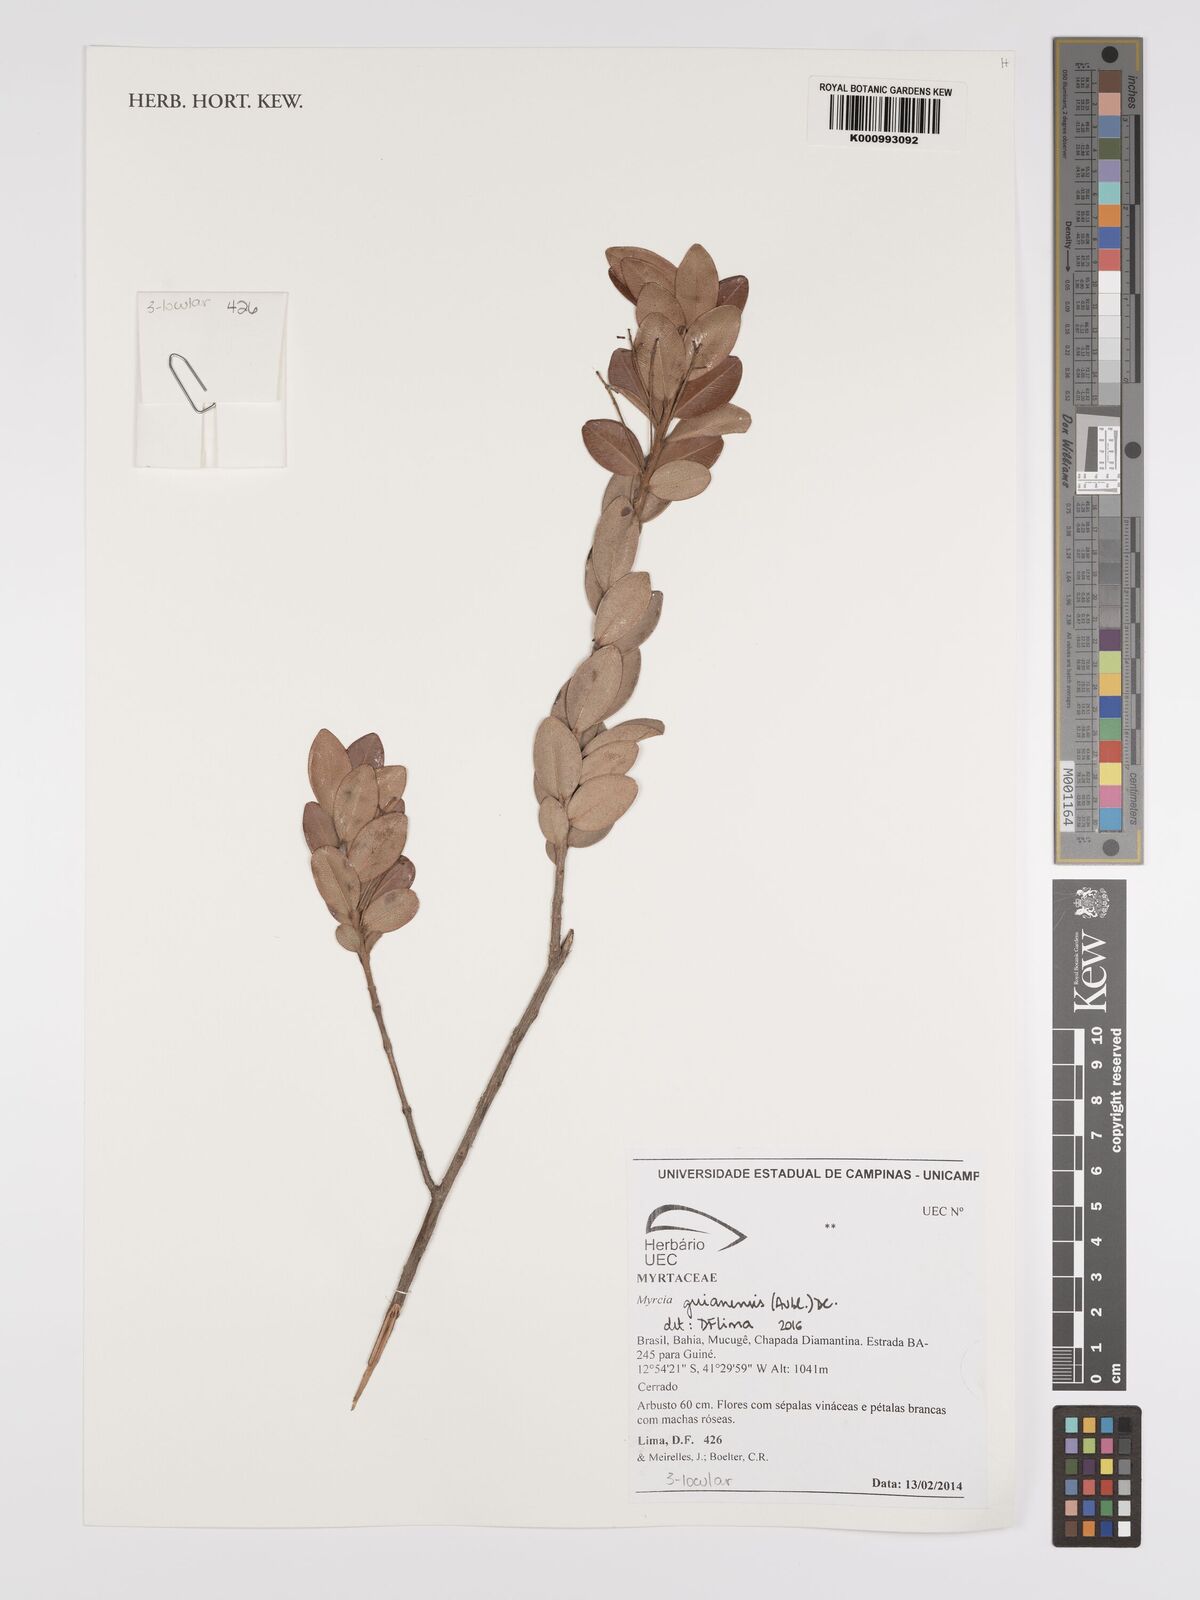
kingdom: Plantae
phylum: Tracheophyta
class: Magnoliopsida
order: Myrtales
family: Myrtaceae
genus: Myrcia
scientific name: Myrcia guianensis
